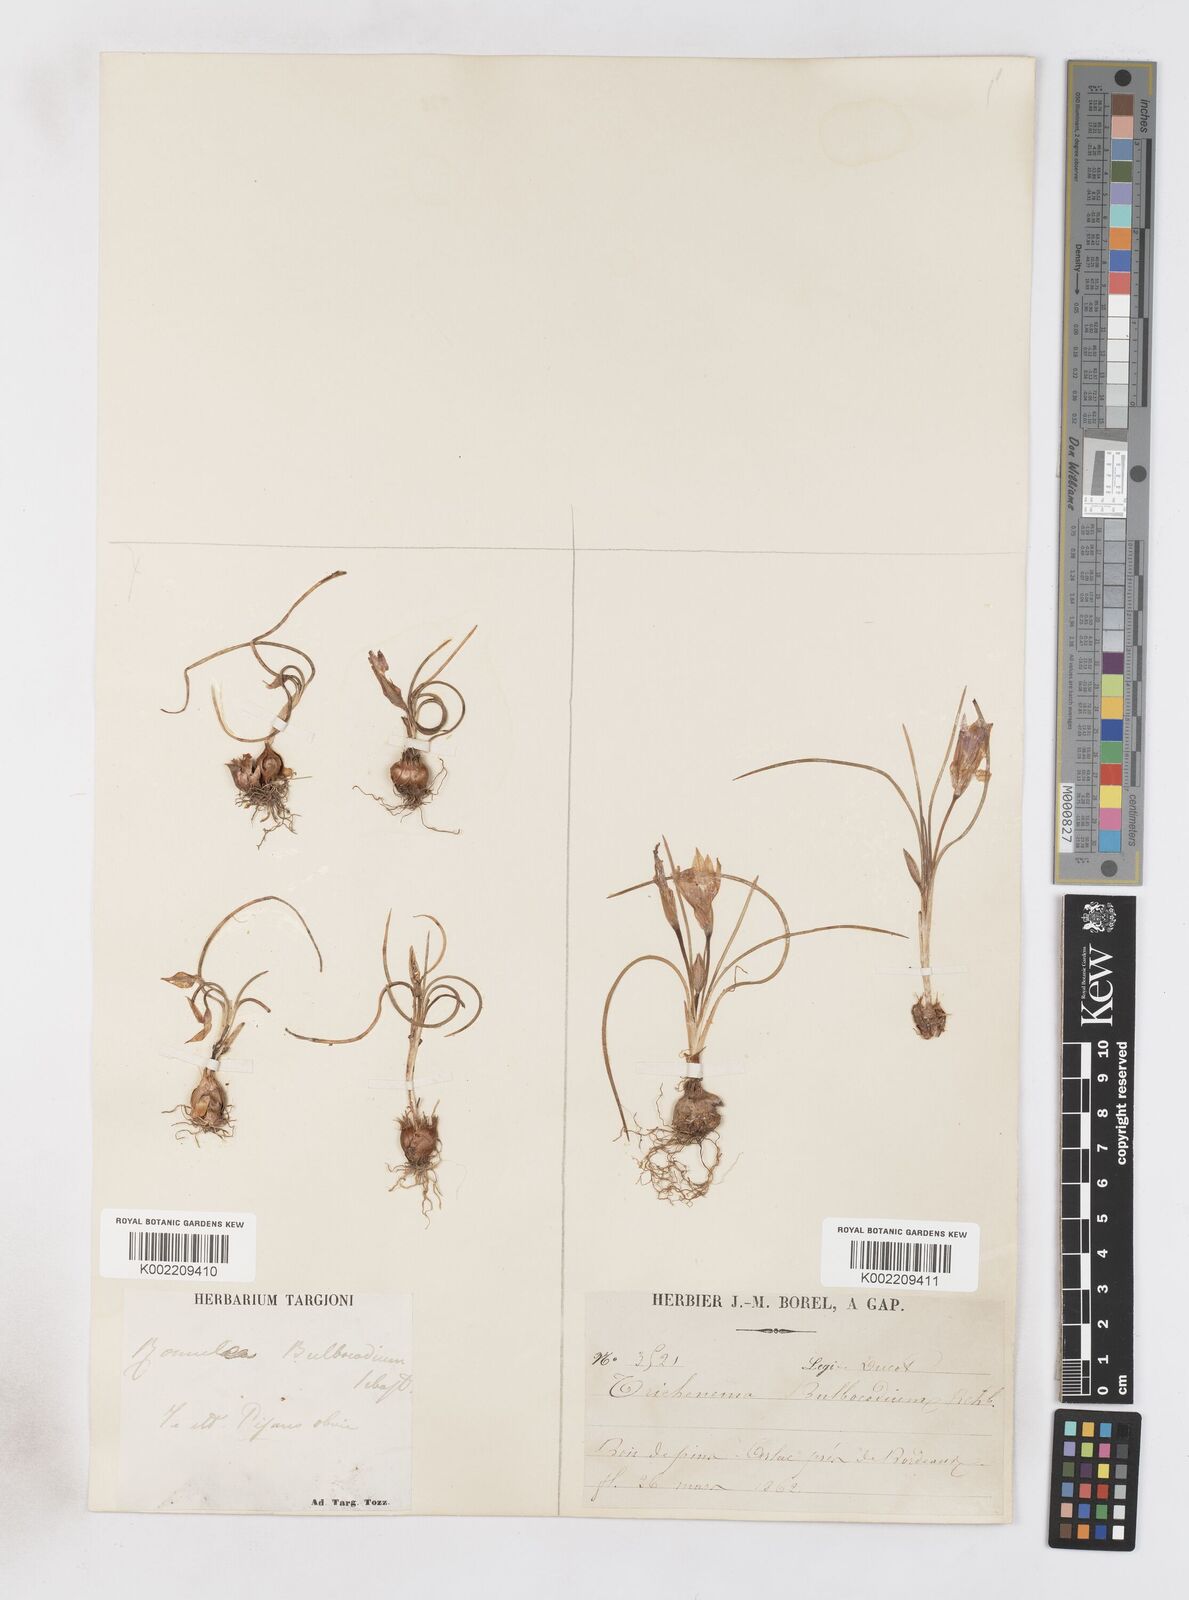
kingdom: Plantae
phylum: Tracheophyta
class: Liliopsida
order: Asparagales
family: Iridaceae
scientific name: Iridaceae
